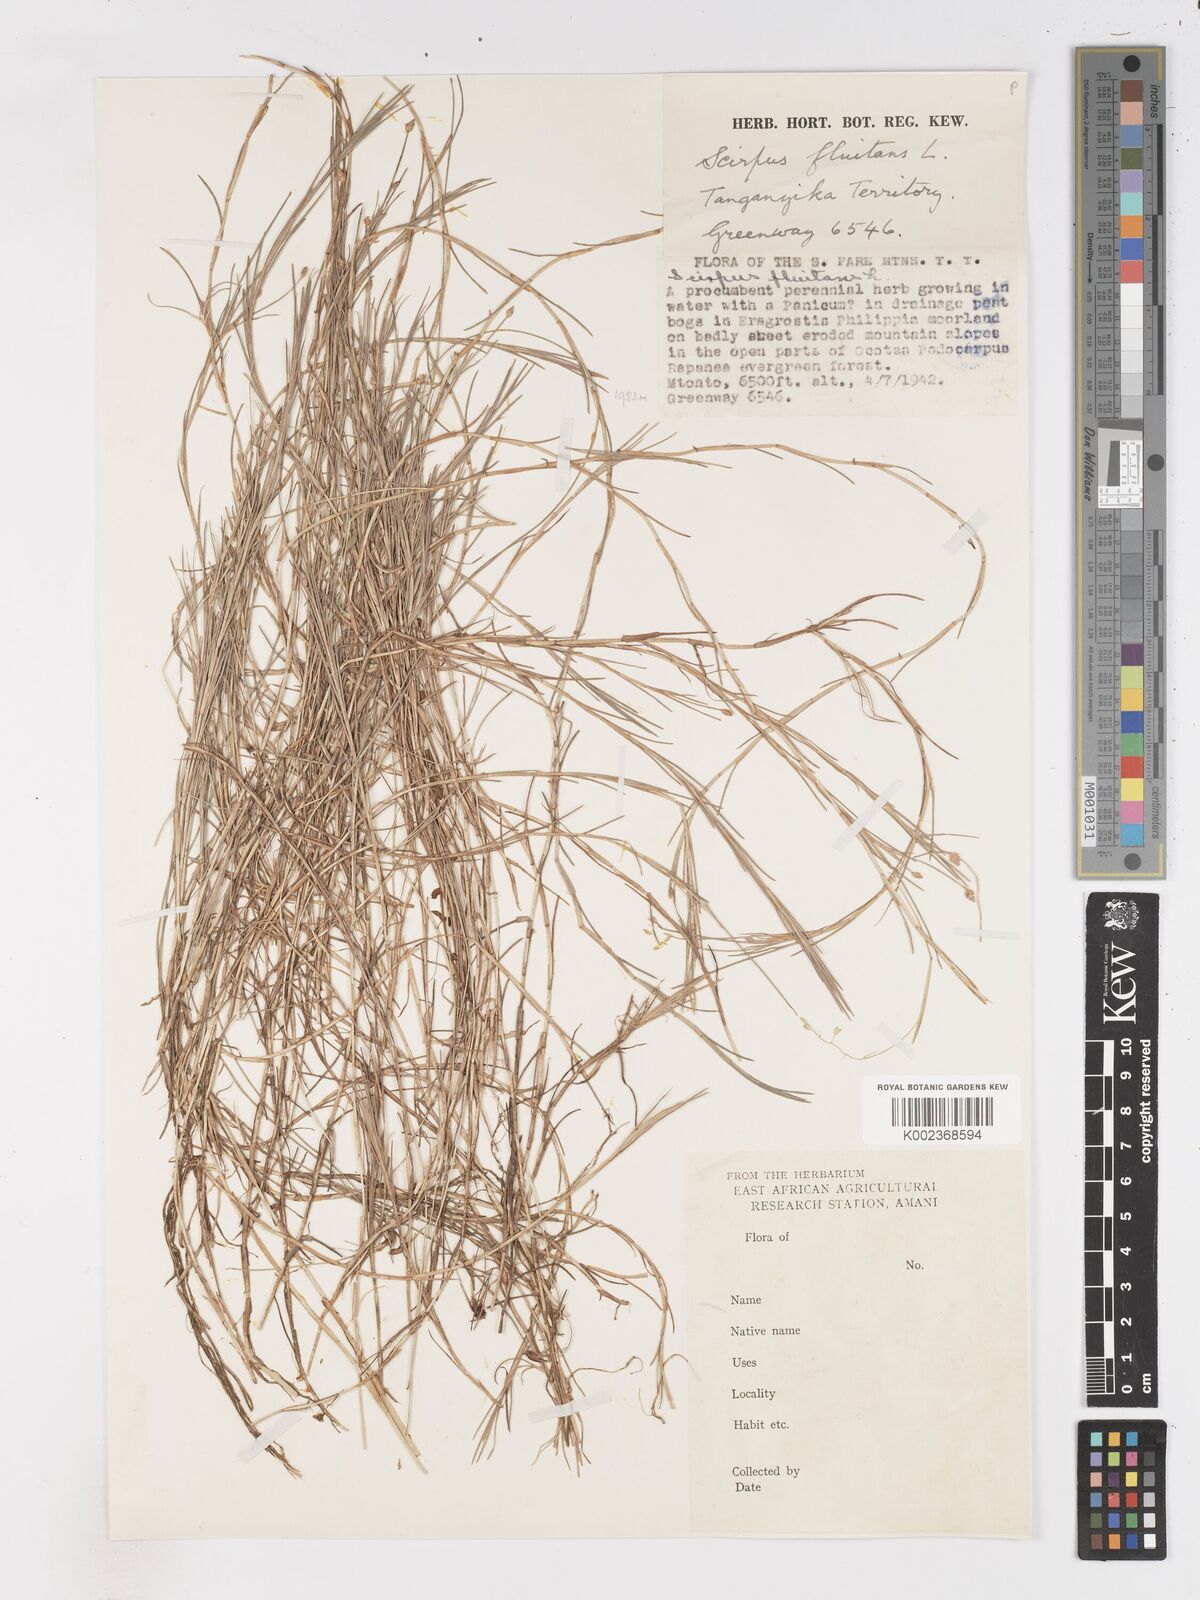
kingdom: Plantae
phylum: Tracheophyta
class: Liliopsida
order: Poales
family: Cyperaceae
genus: Isolepis
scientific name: Isolepis fluitans
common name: Floating club-rush
